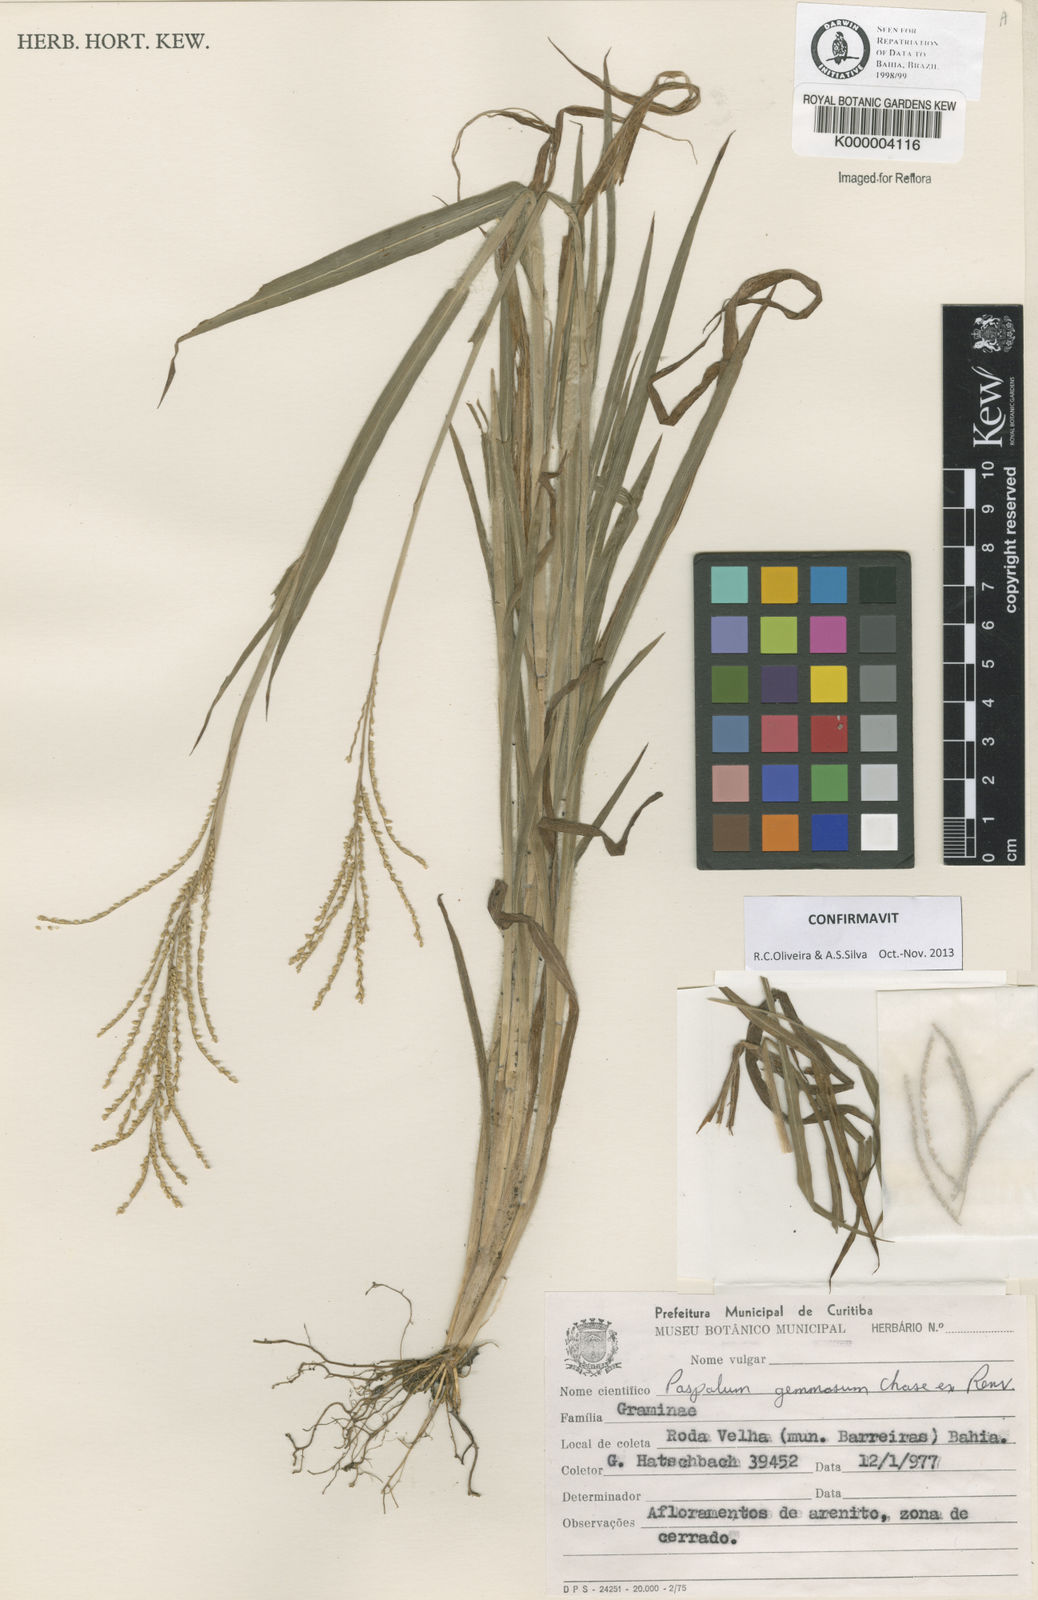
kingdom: Plantae
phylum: Tracheophyta
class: Liliopsida
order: Poales
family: Poaceae
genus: Paspalum
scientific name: Paspalum subsesquiglume
